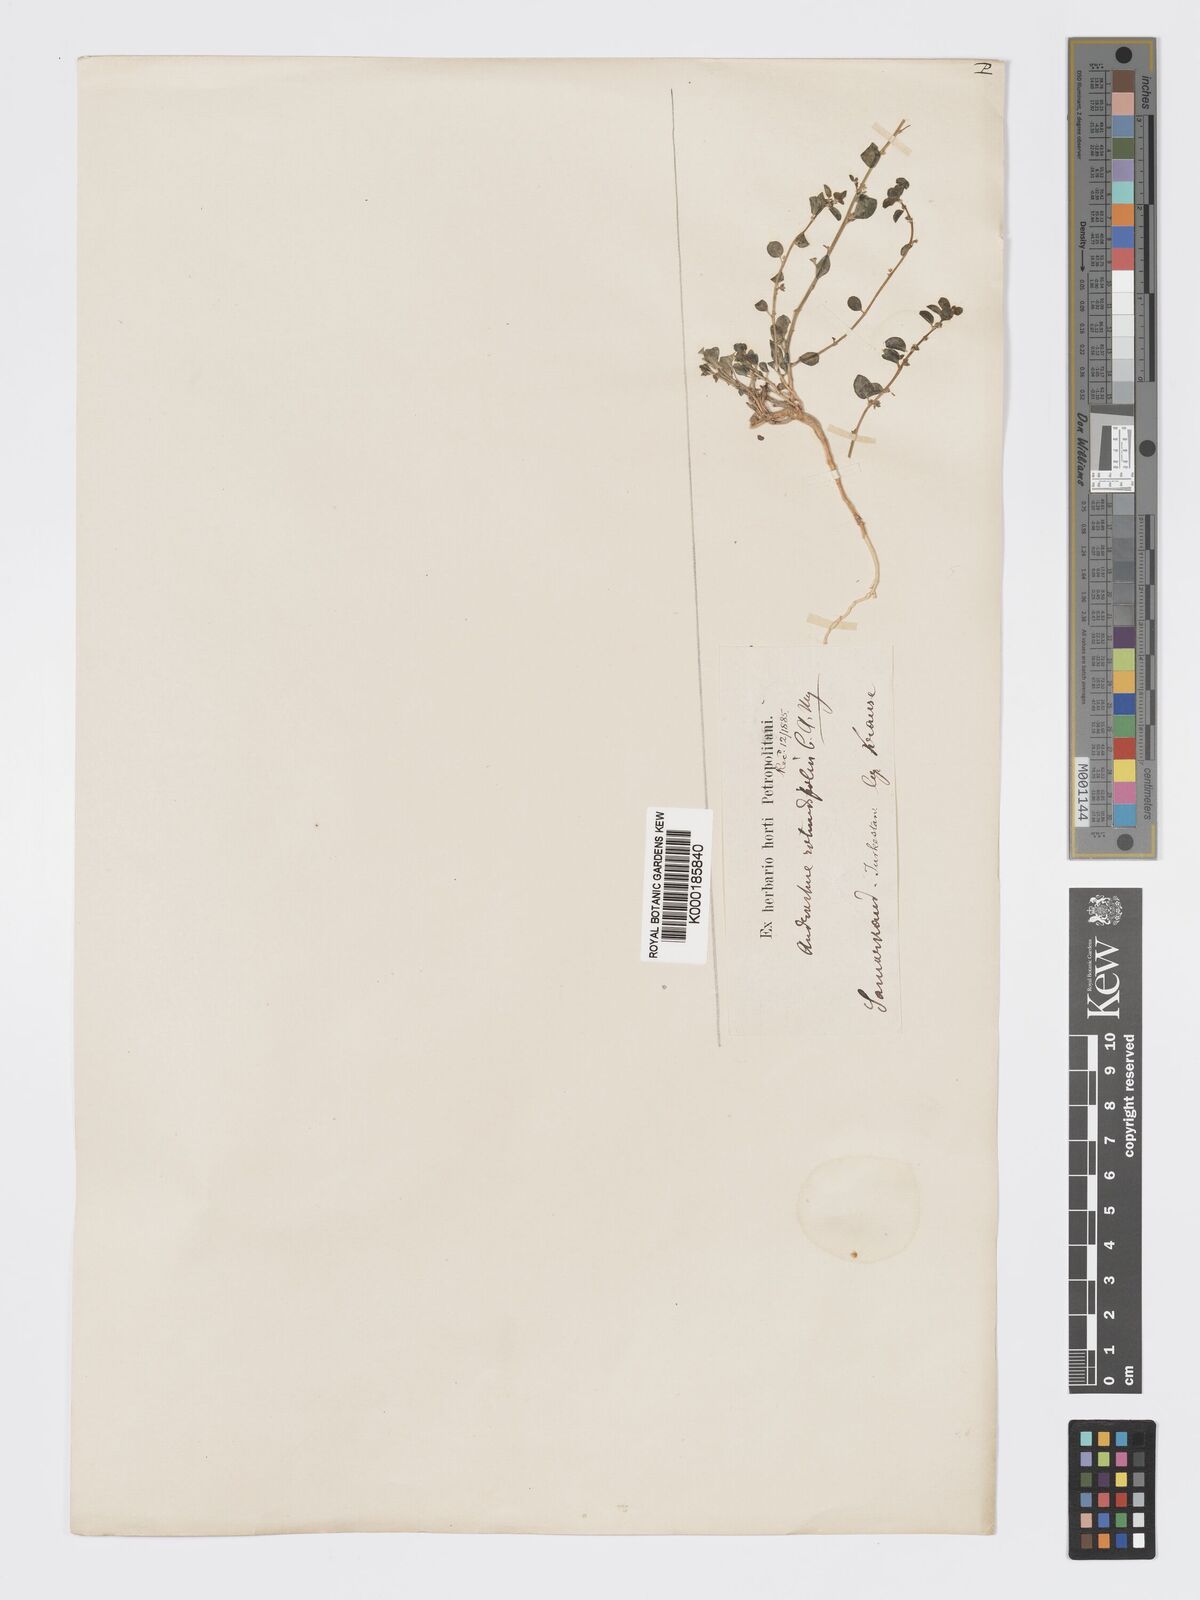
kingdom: Plantae
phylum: Tracheophyta
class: Magnoliopsida
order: Malpighiales
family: Phyllanthaceae
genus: Andrachne
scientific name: Andrachne telephioides
